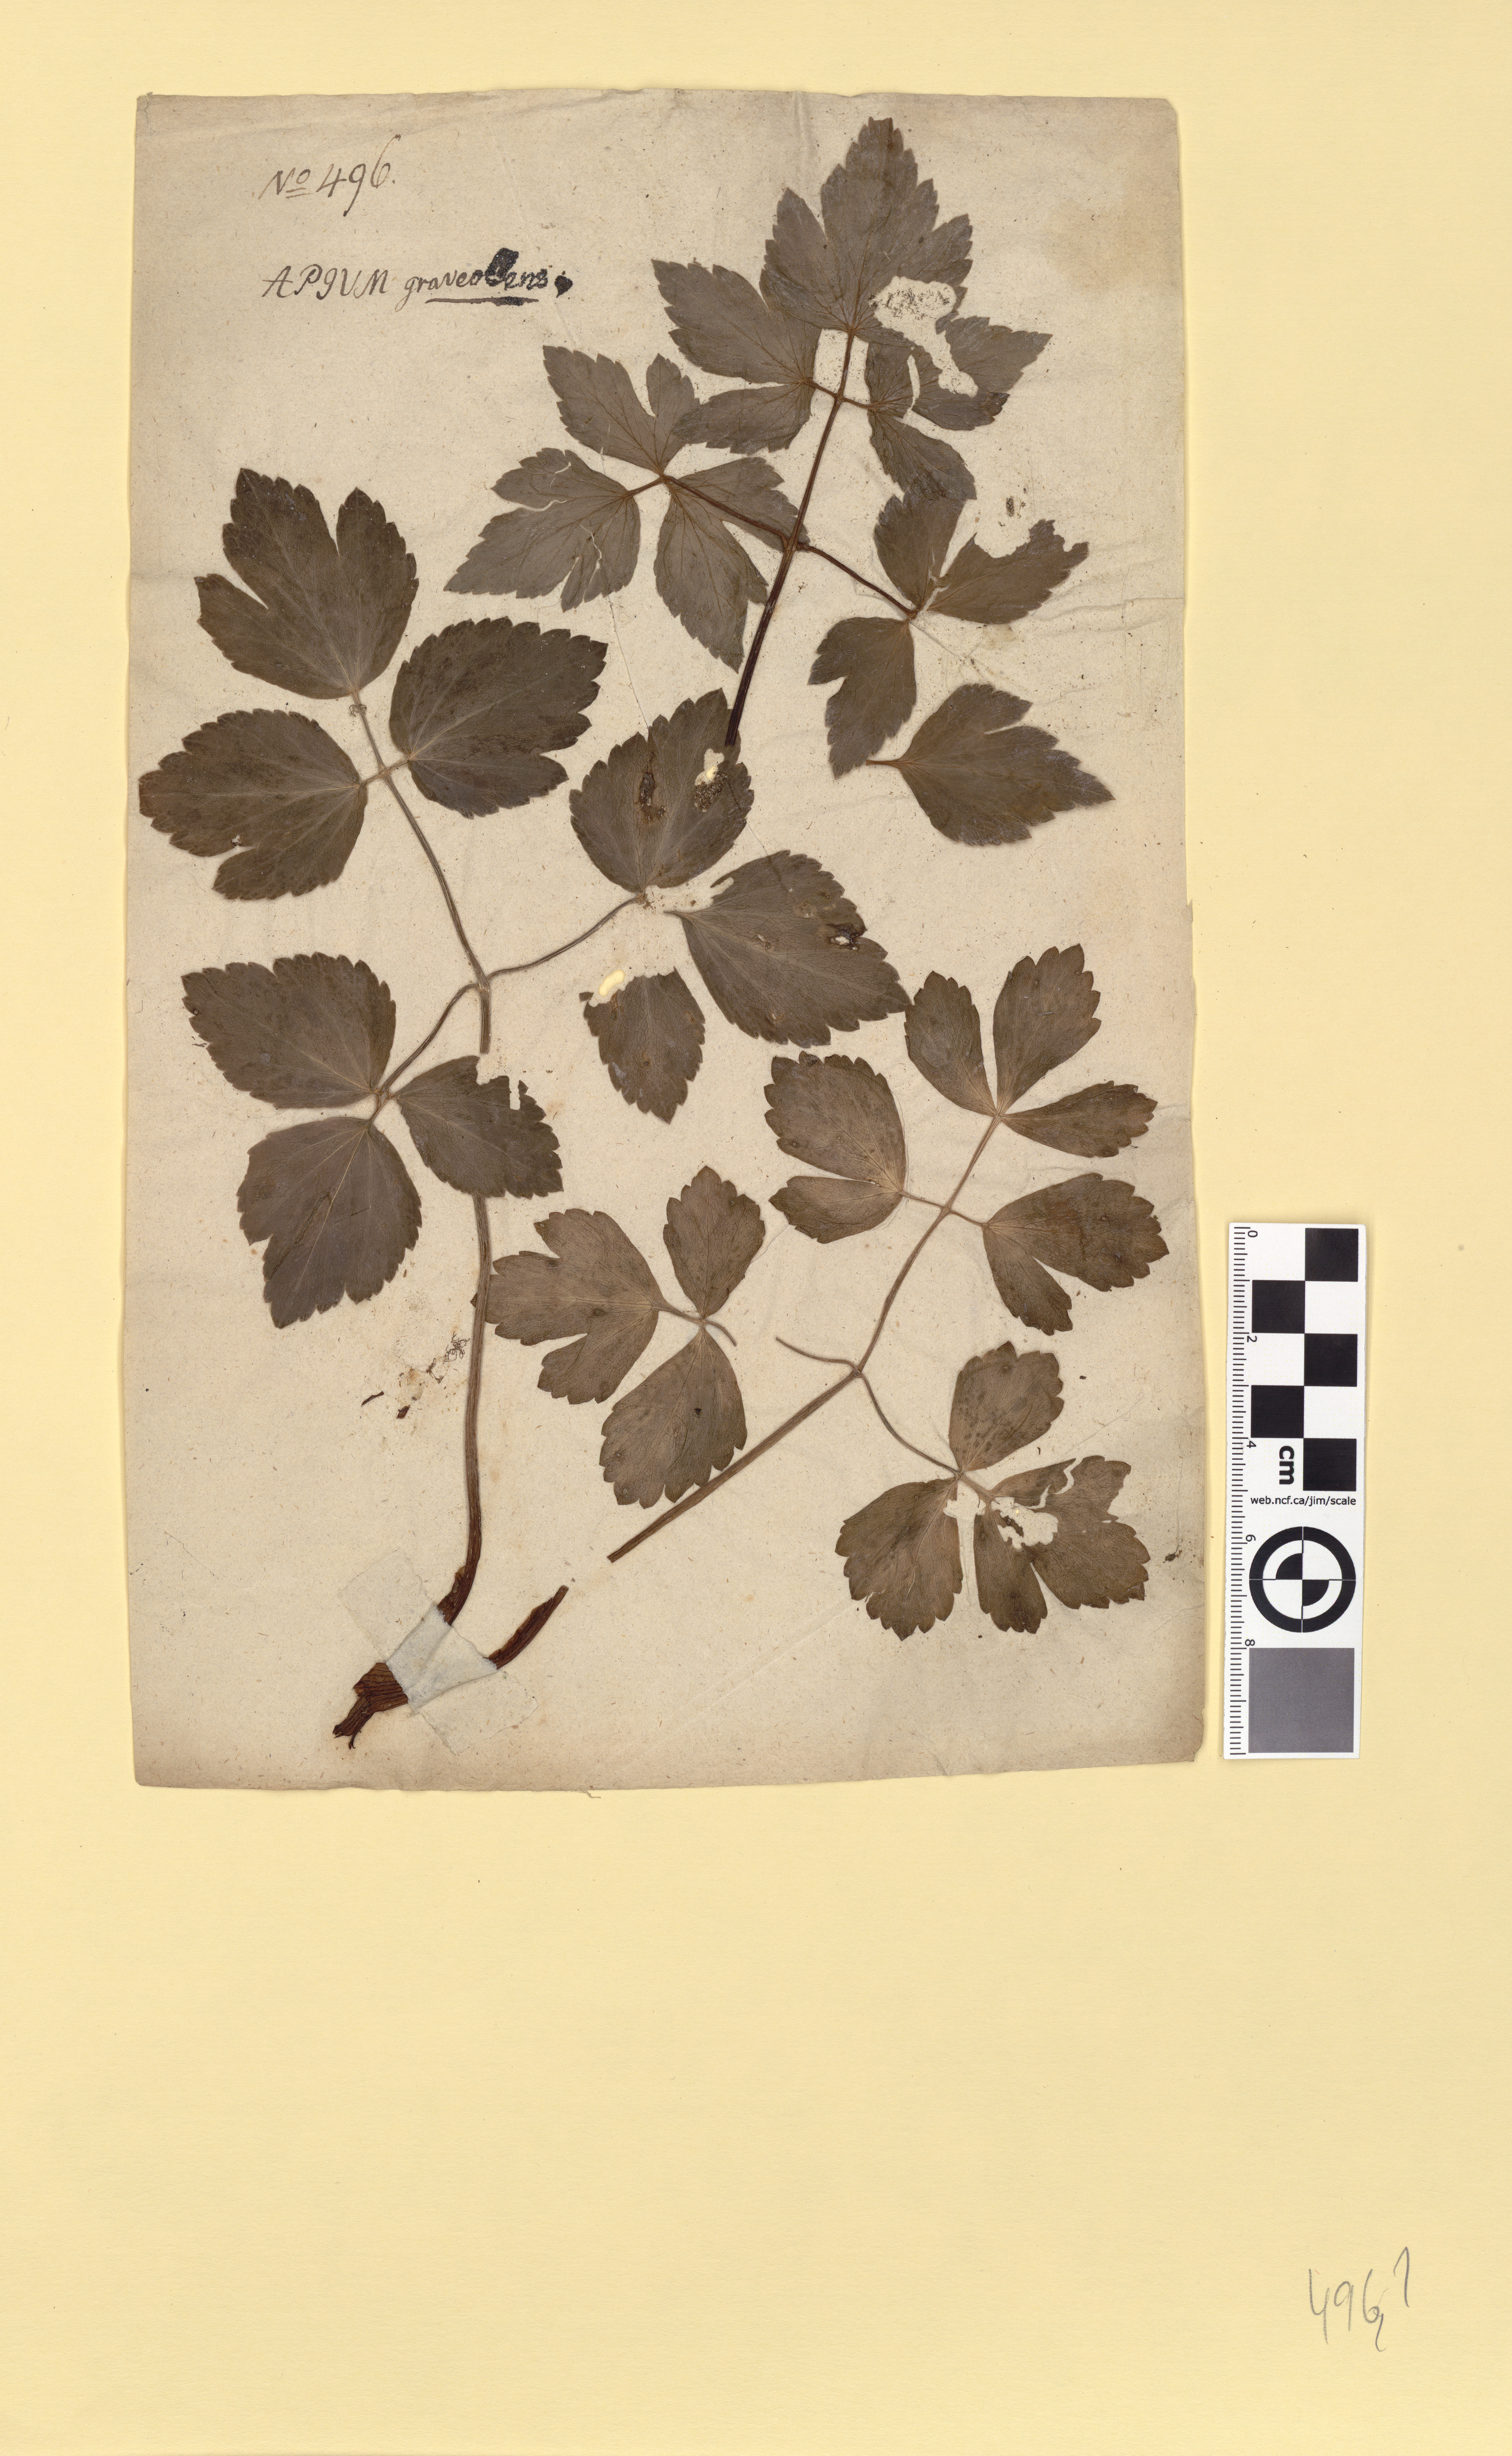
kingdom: Plantae
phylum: Tracheophyta
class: Magnoliopsida
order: Apiales
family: Apiaceae
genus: Apium
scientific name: Apium graveolens
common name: Wild celery
